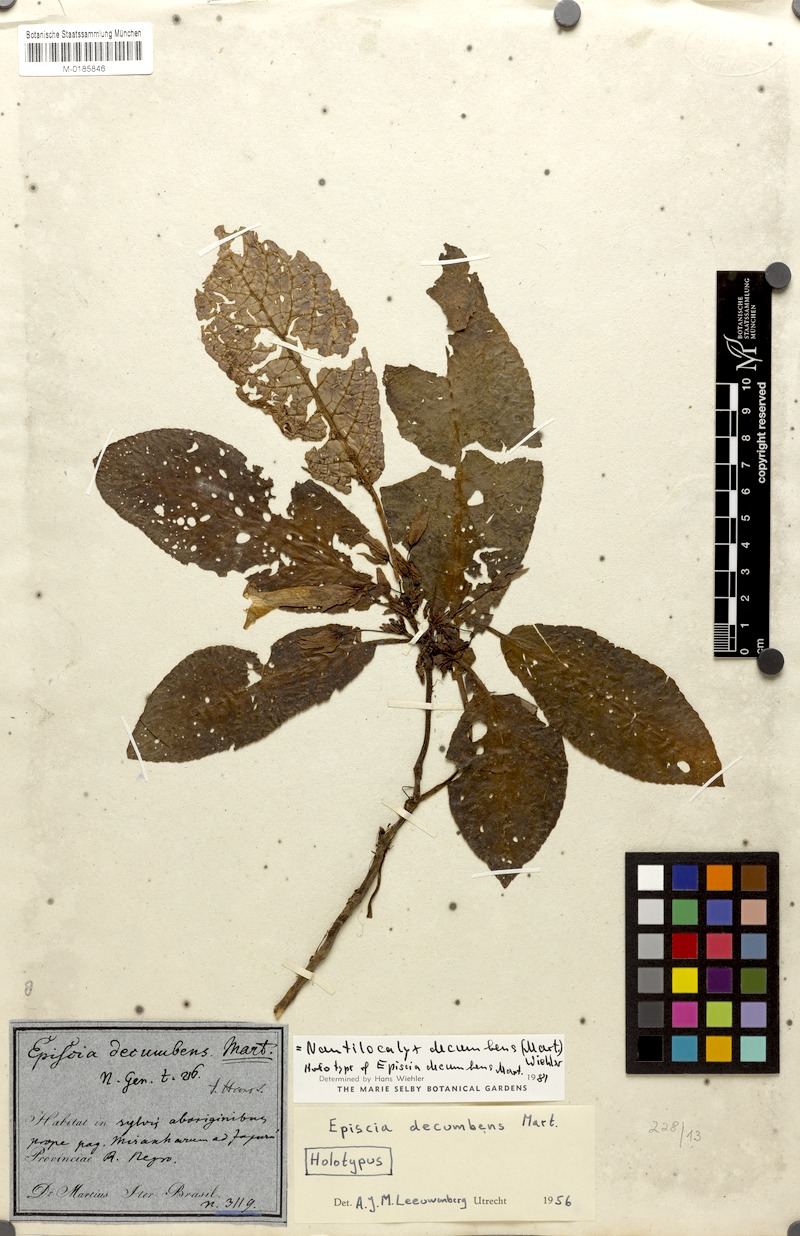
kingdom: Plantae
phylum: Tracheophyta
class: Magnoliopsida
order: Lamiales
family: Gesneriaceae
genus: Nautilocalyx
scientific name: Nautilocalyx decumbens
